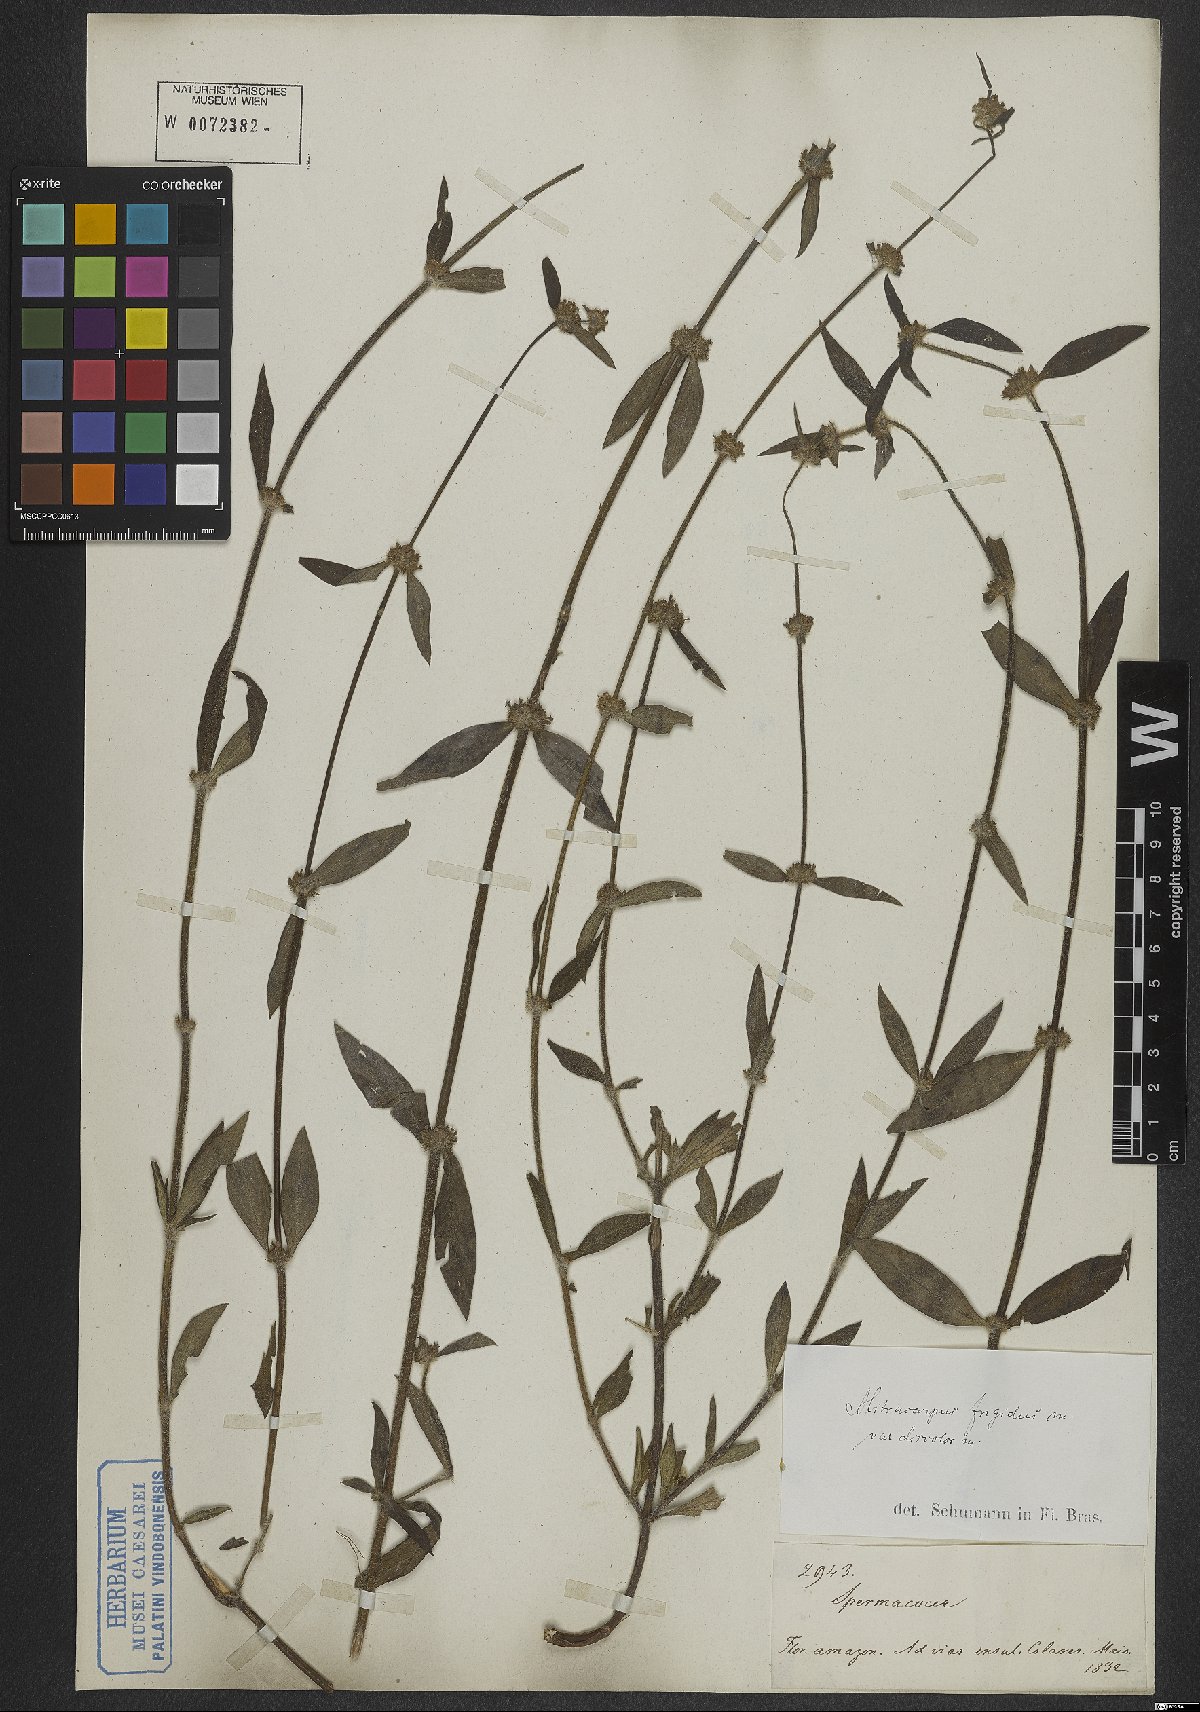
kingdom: Plantae
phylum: Tracheophyta
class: Magnoliopsida
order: Gentianales
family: Rubiaceae
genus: Mitracarpus
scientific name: Mitracarpus frigidus
